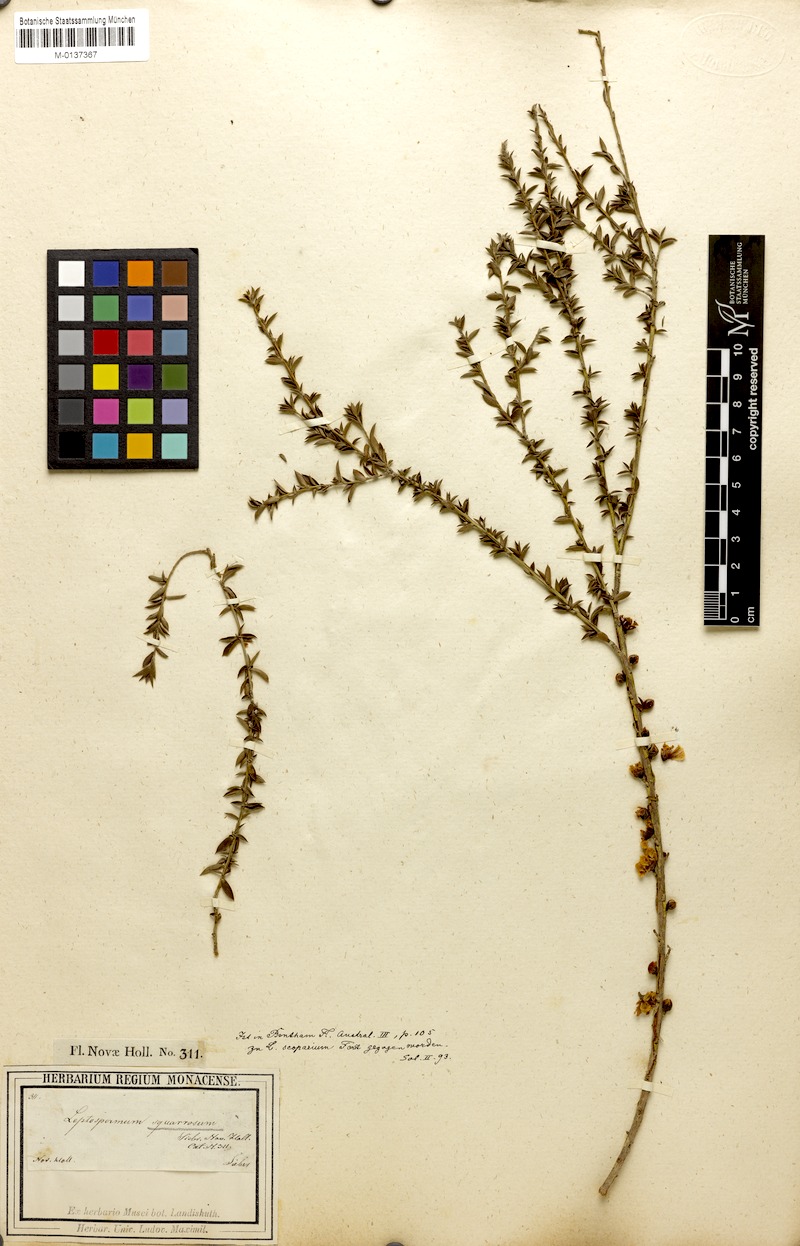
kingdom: Plantae
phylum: Tracheophyta
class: Magnoliopsida
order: Myrtales
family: Myrtaceae
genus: Leptospermum
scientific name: Leptospermum squarrosum
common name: Peach-blossom teatree
